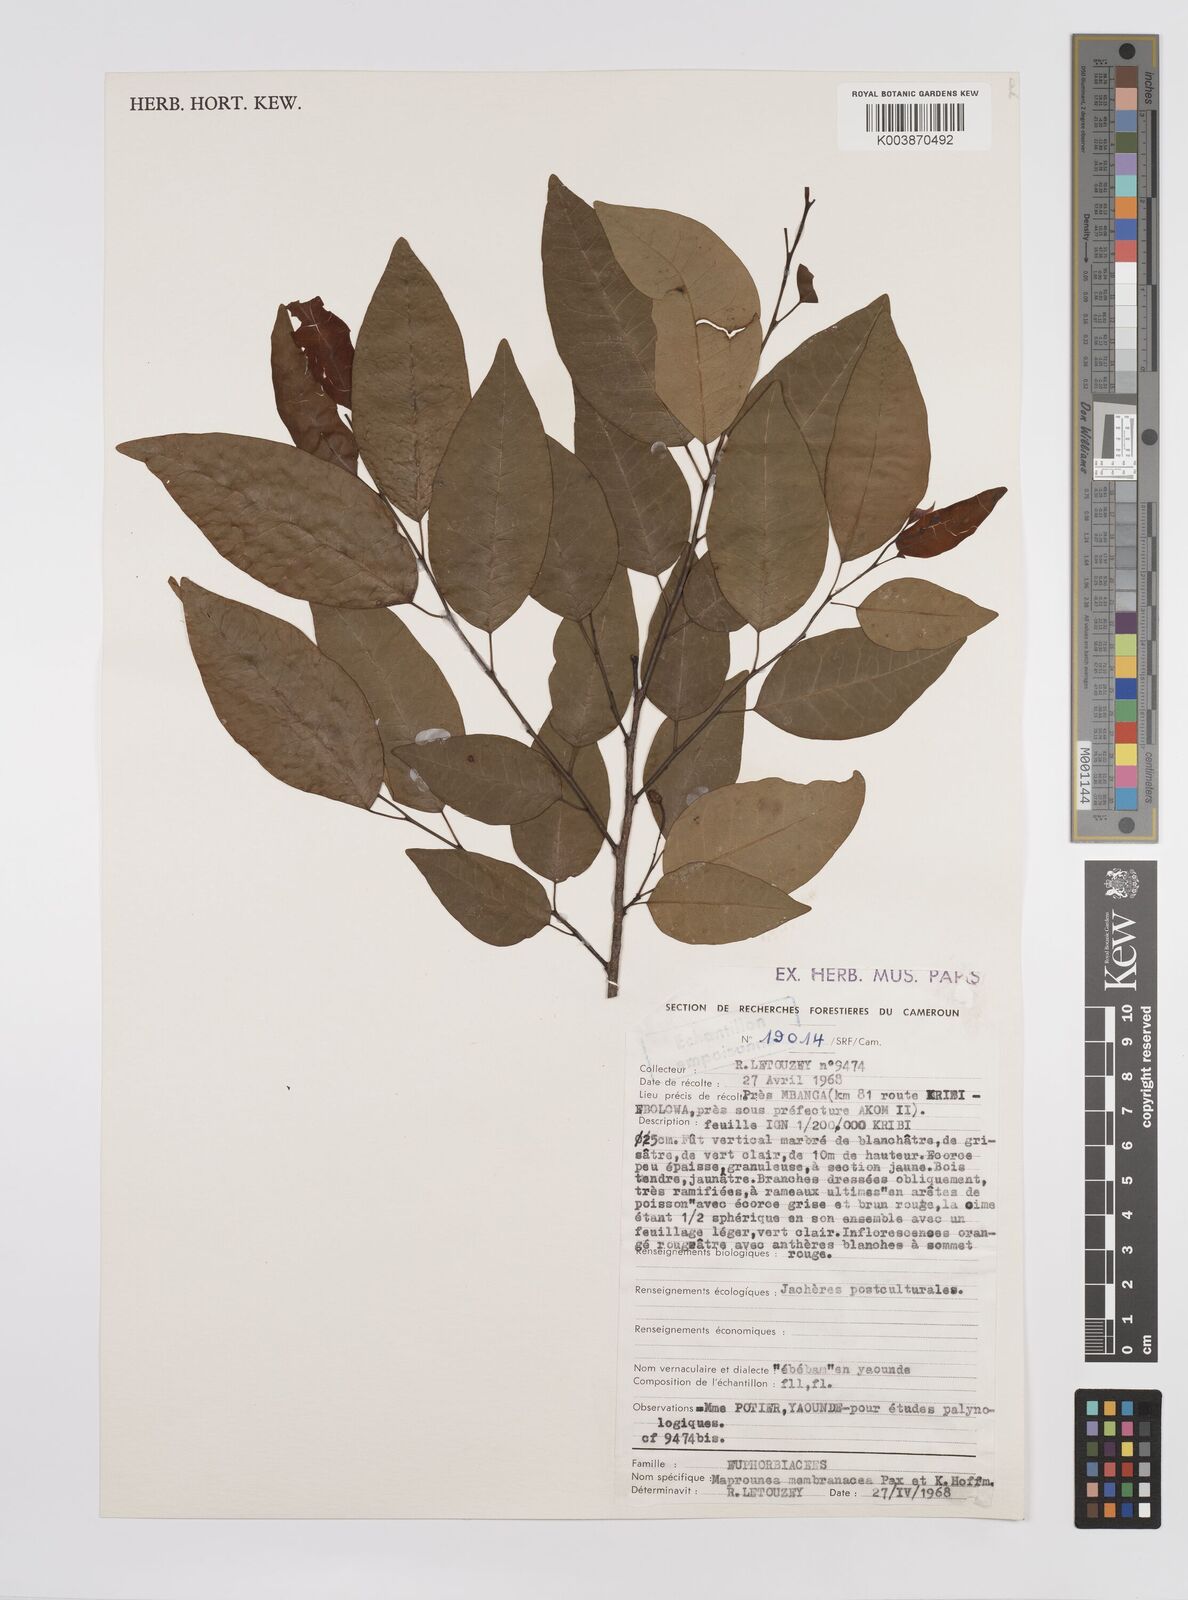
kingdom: Plantae
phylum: Tracheophyta
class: Magnoliopsida
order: Malpighiales
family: Euphorbiaceae
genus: Maprounea
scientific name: Maprounea membranacea
